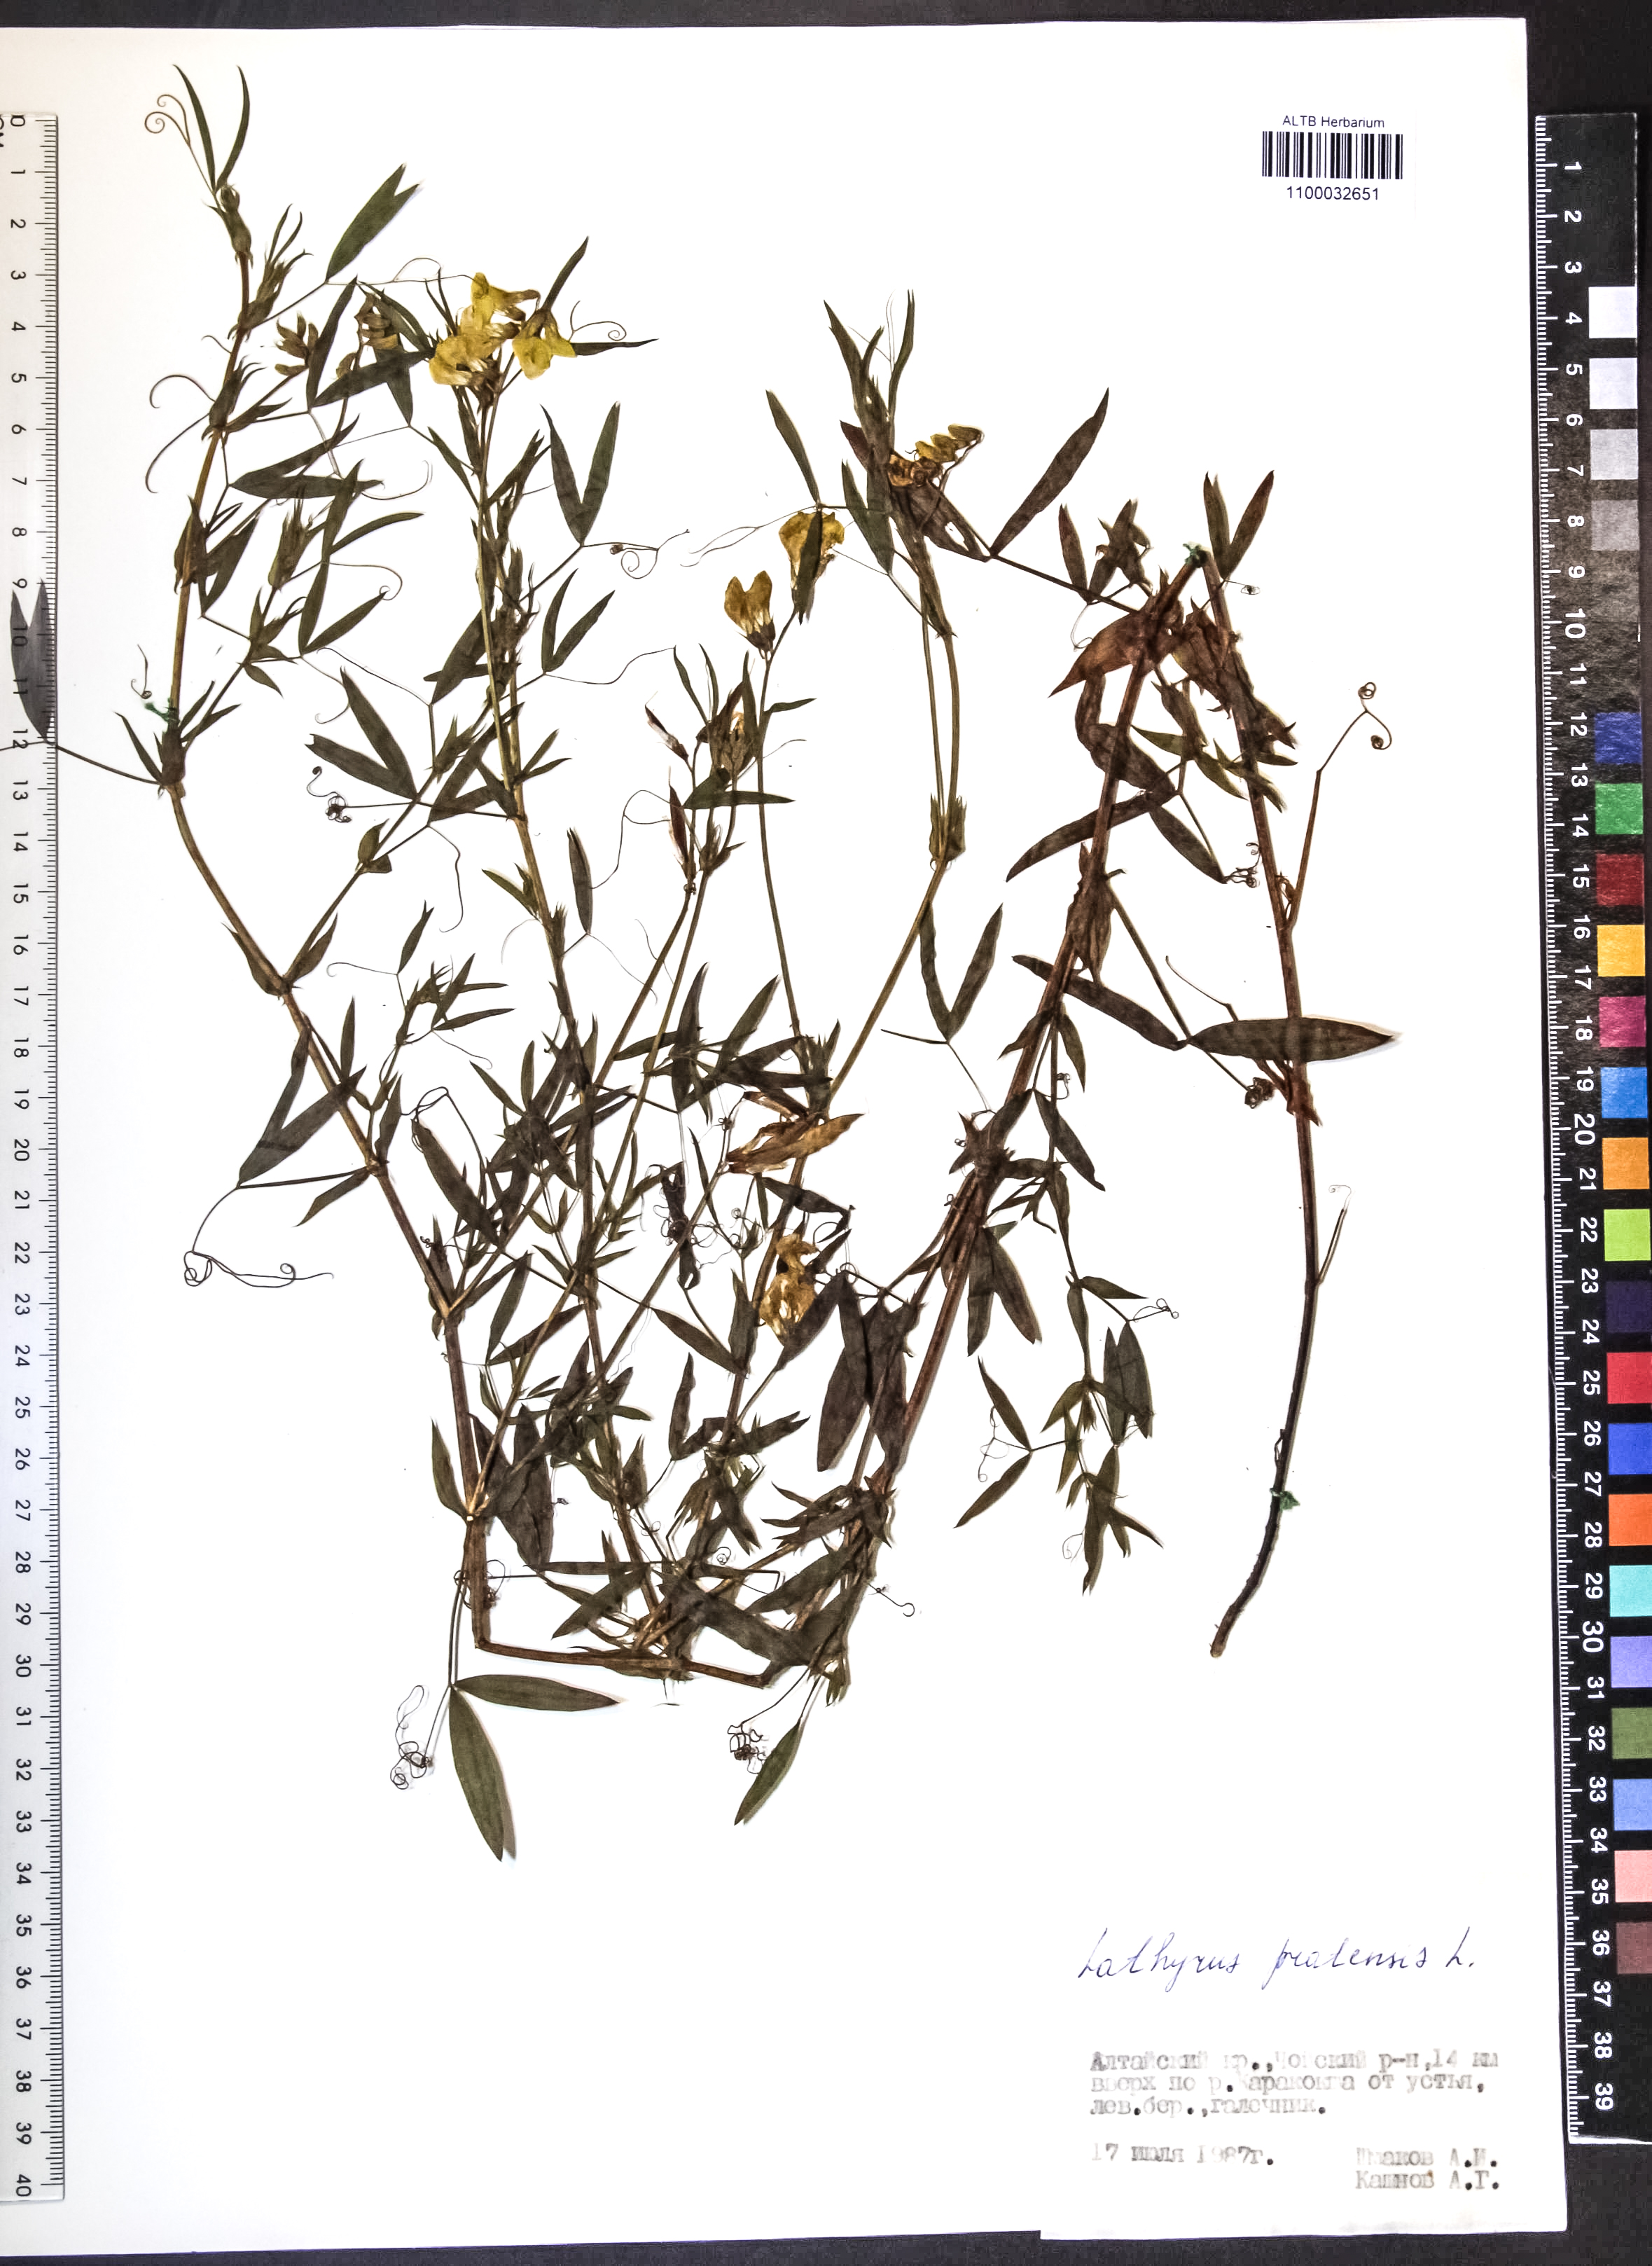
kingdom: Plantae
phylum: Tracheophyta
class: Magnoliopsida
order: Fabales
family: Fabaceae
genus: Lathyrus
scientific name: Lathyrus pratensis
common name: Meadow vetchling
